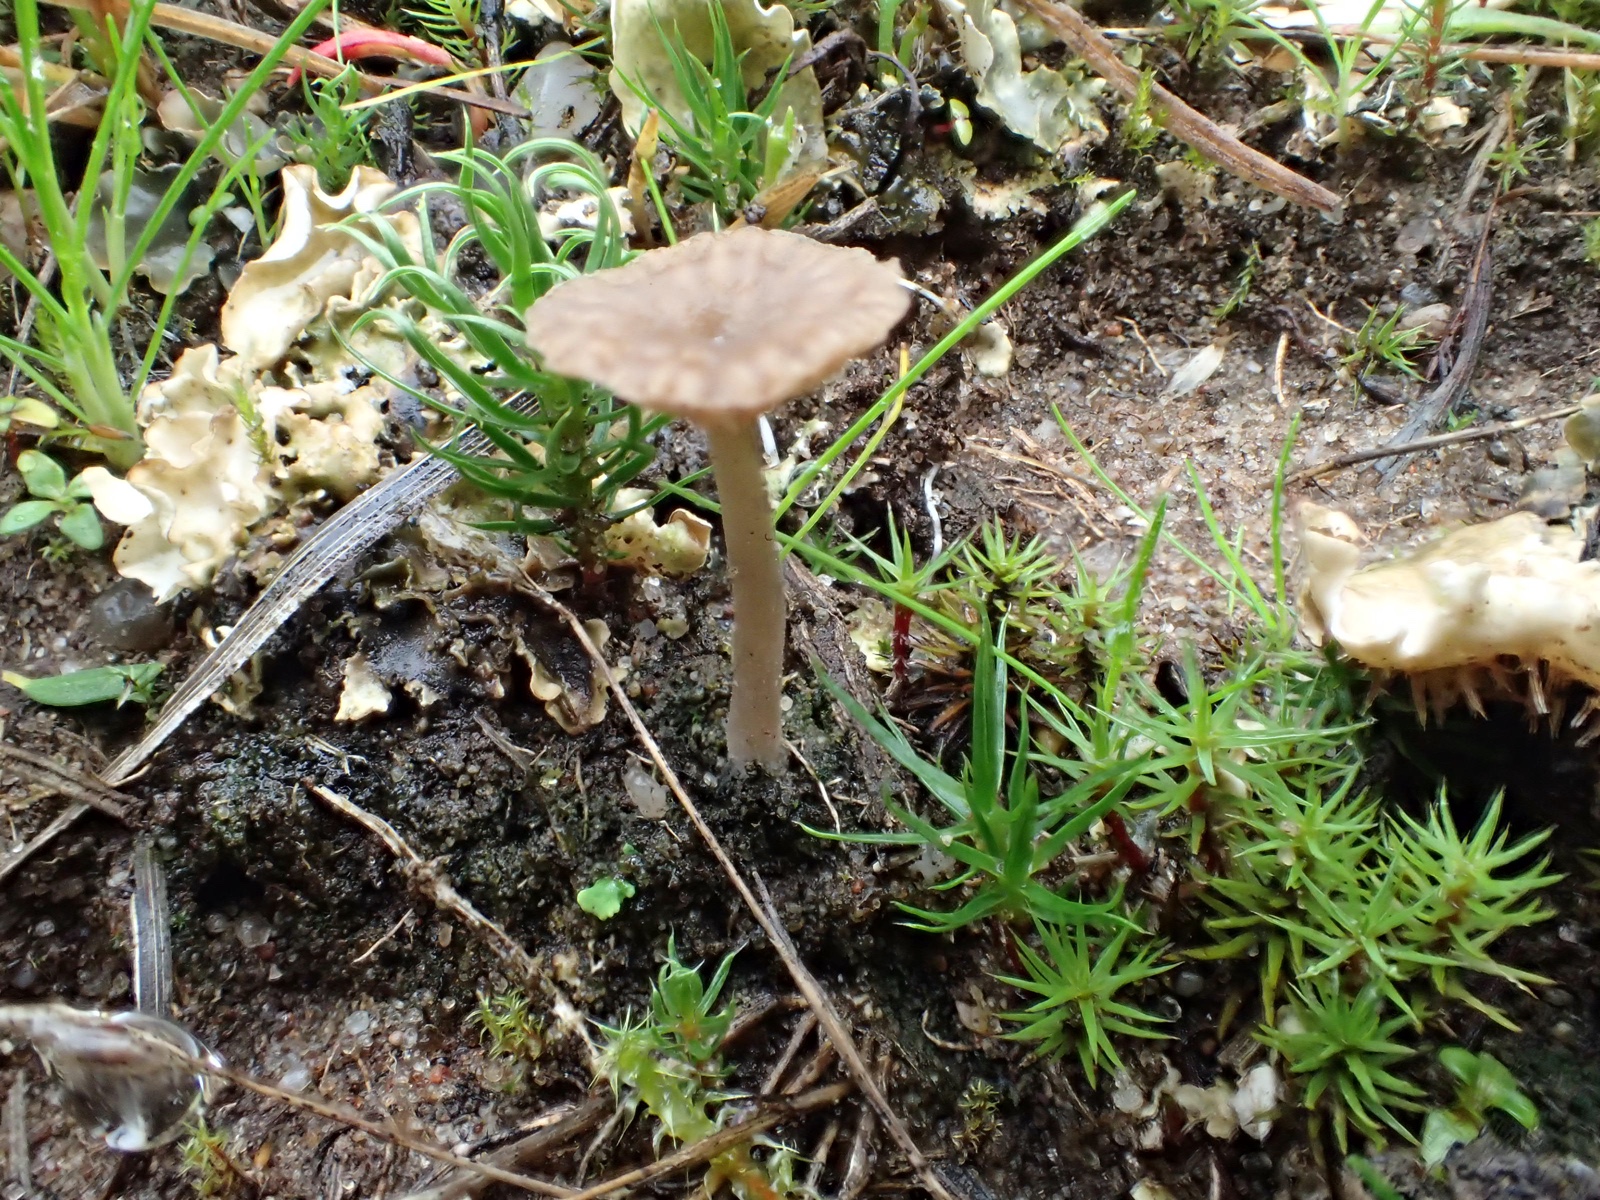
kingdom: Fungi
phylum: Basidiomycota
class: Agaricomycetes
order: Agaricales
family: Hygrophoraceae
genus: Arrhenia
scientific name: Arrhenia peltigerina
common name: skjoldlav-fontænehat
